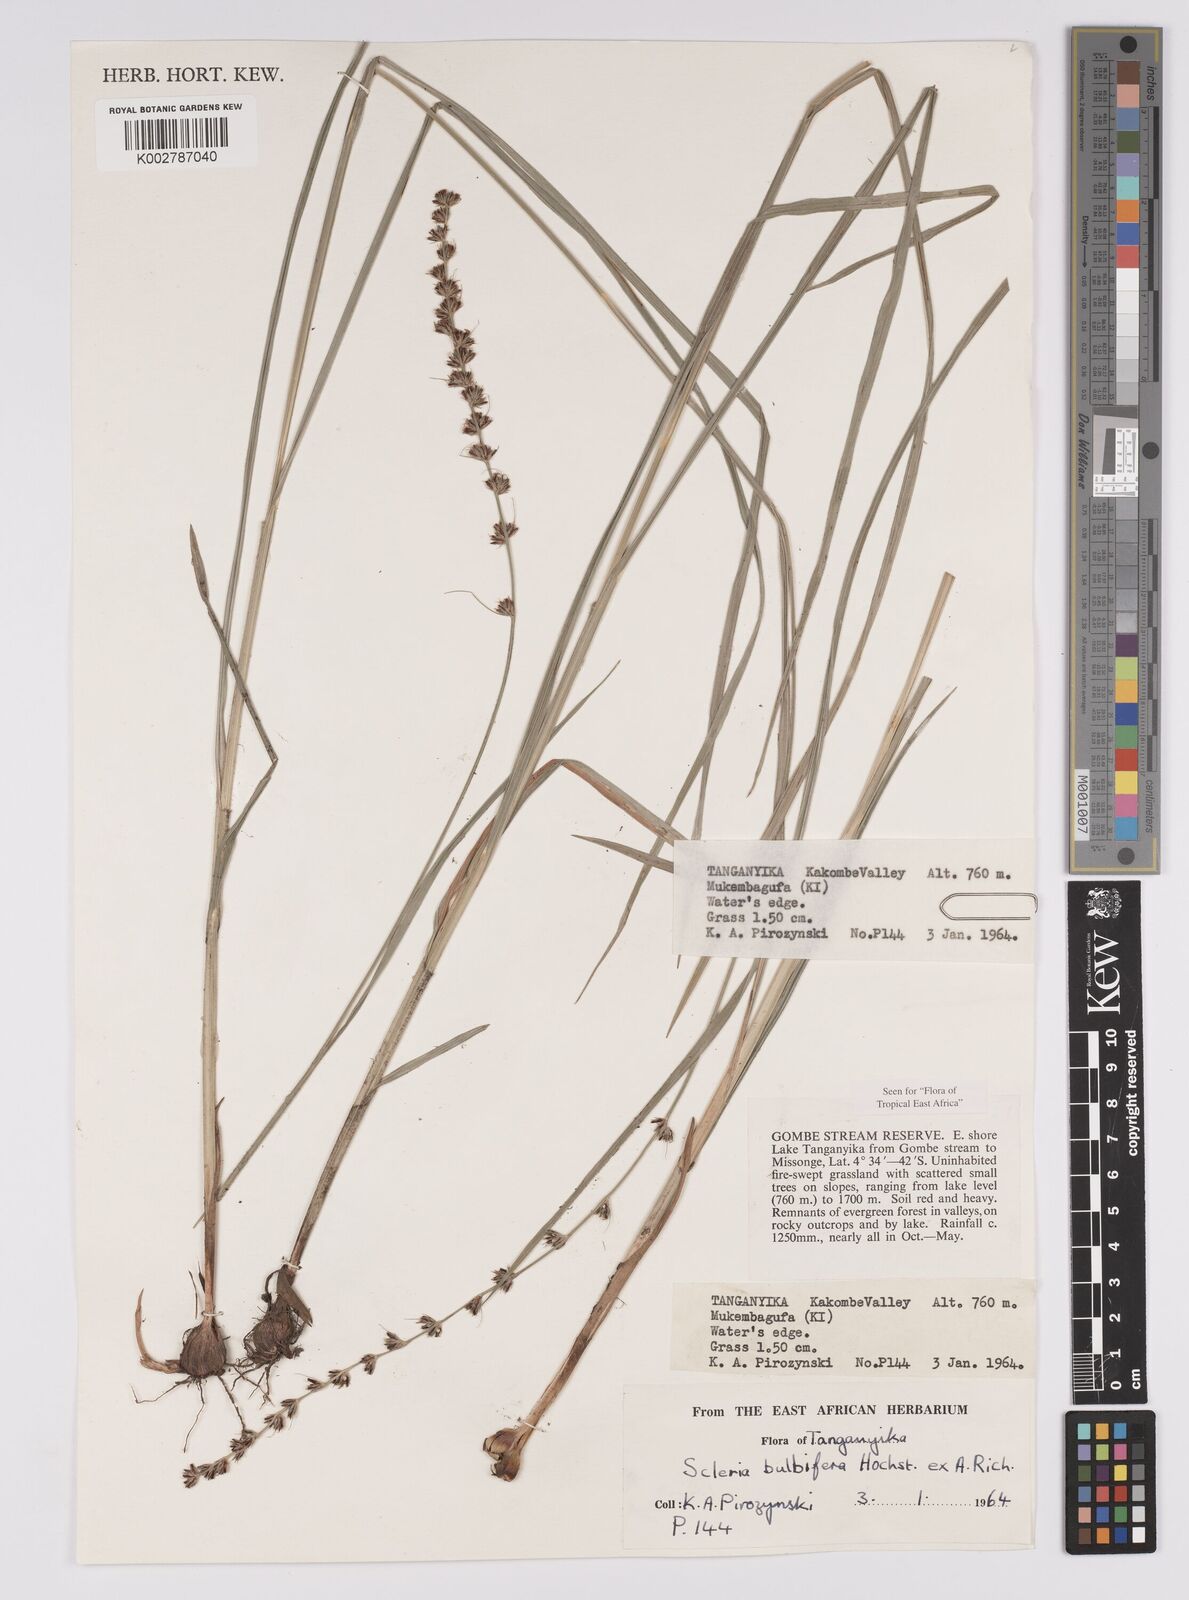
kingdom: Plantae
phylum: Tracheophyta
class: Liliopsida
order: Poales
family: Cyperaceae
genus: Scleria
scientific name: Scleria bulbifera
